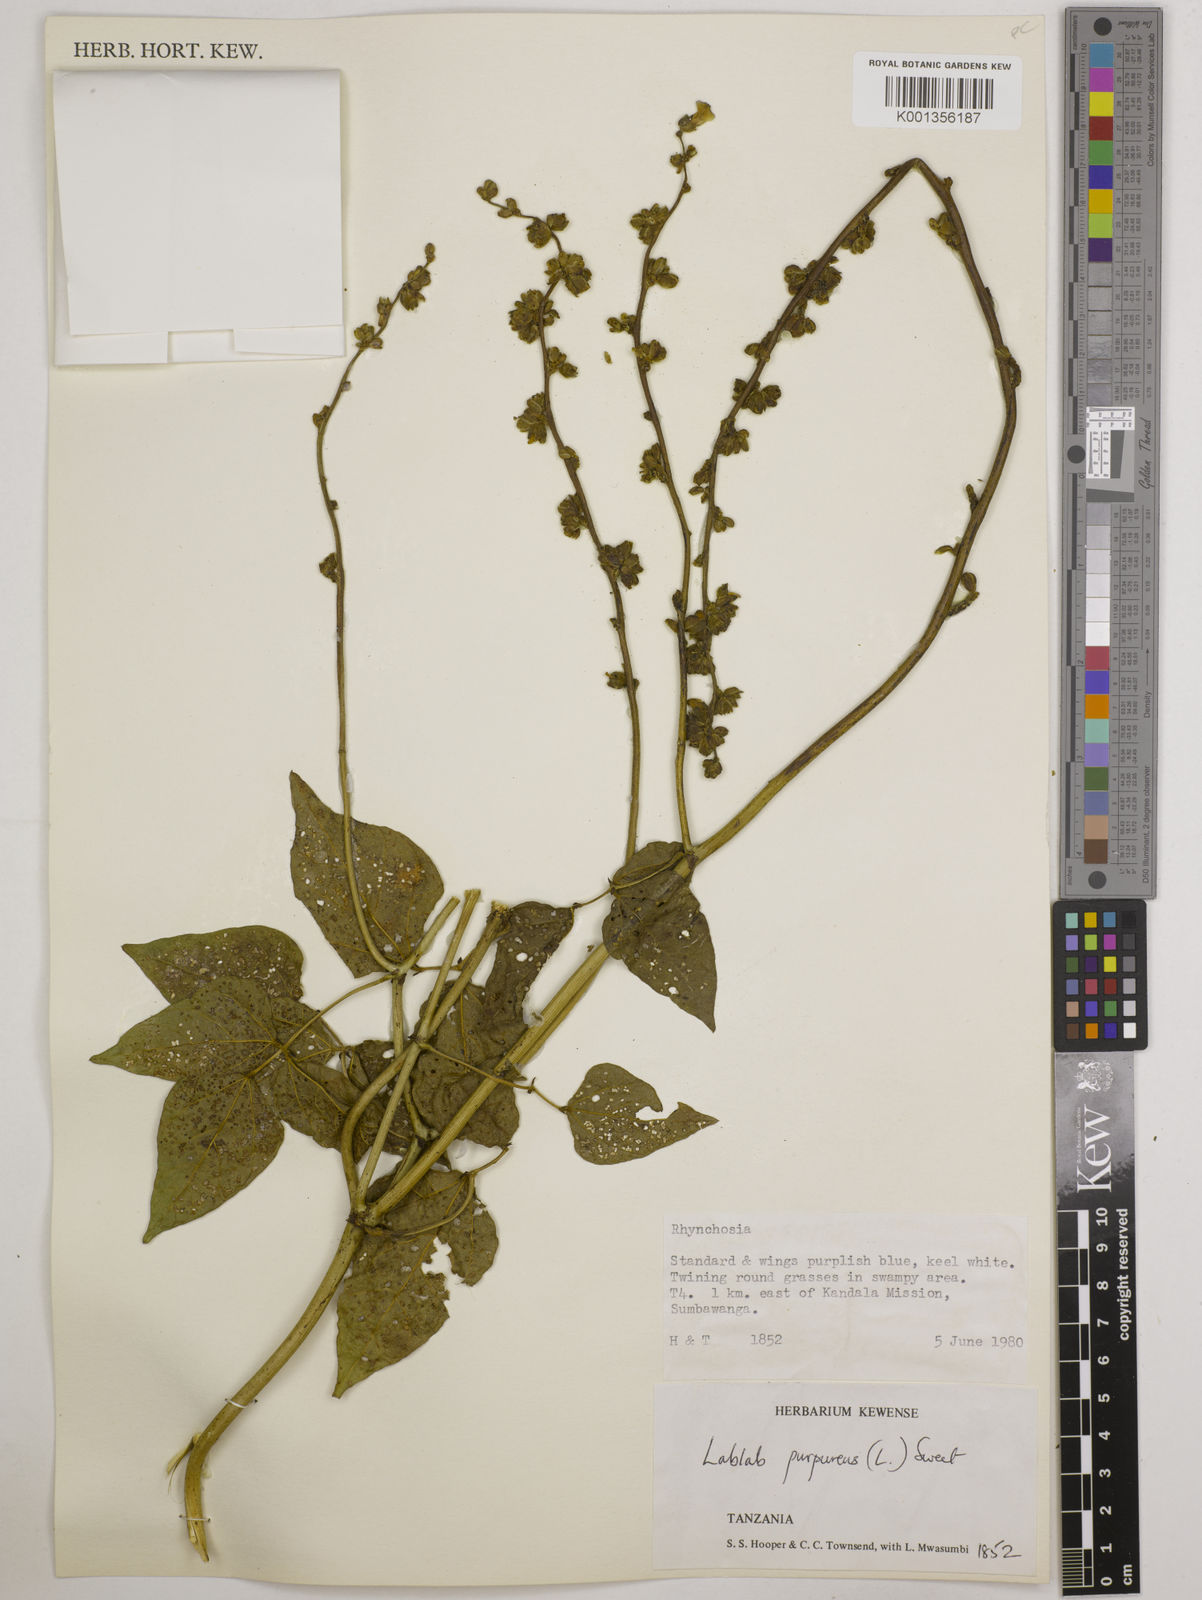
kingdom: Plantae
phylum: Tracheophyta
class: Magnoliopsida
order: Fabales
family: Fabaceae
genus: Lablab
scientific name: Lablab purpureus
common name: Lablab-bean
